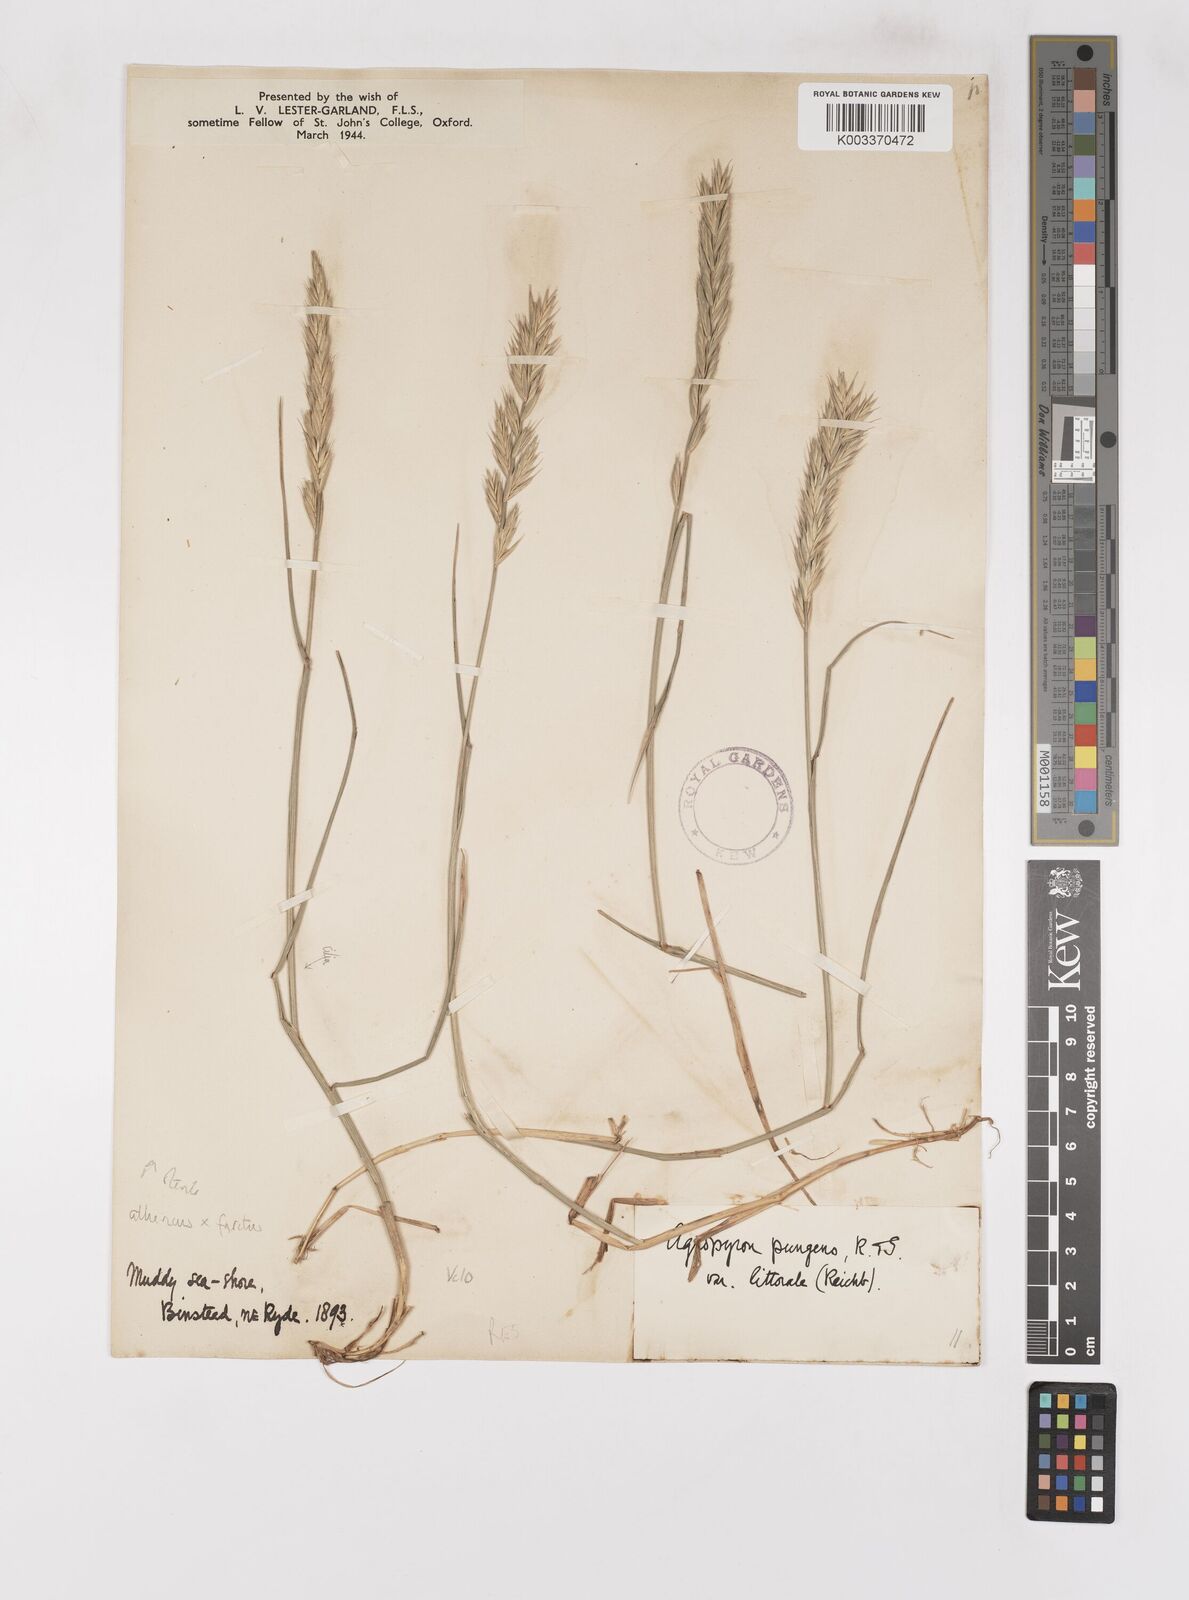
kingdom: Plantae
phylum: Tracheophyta
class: Liliopsida
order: Poales
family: Poaceae
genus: Thinoelymus
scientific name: Thinoelymus obtusiusculus
